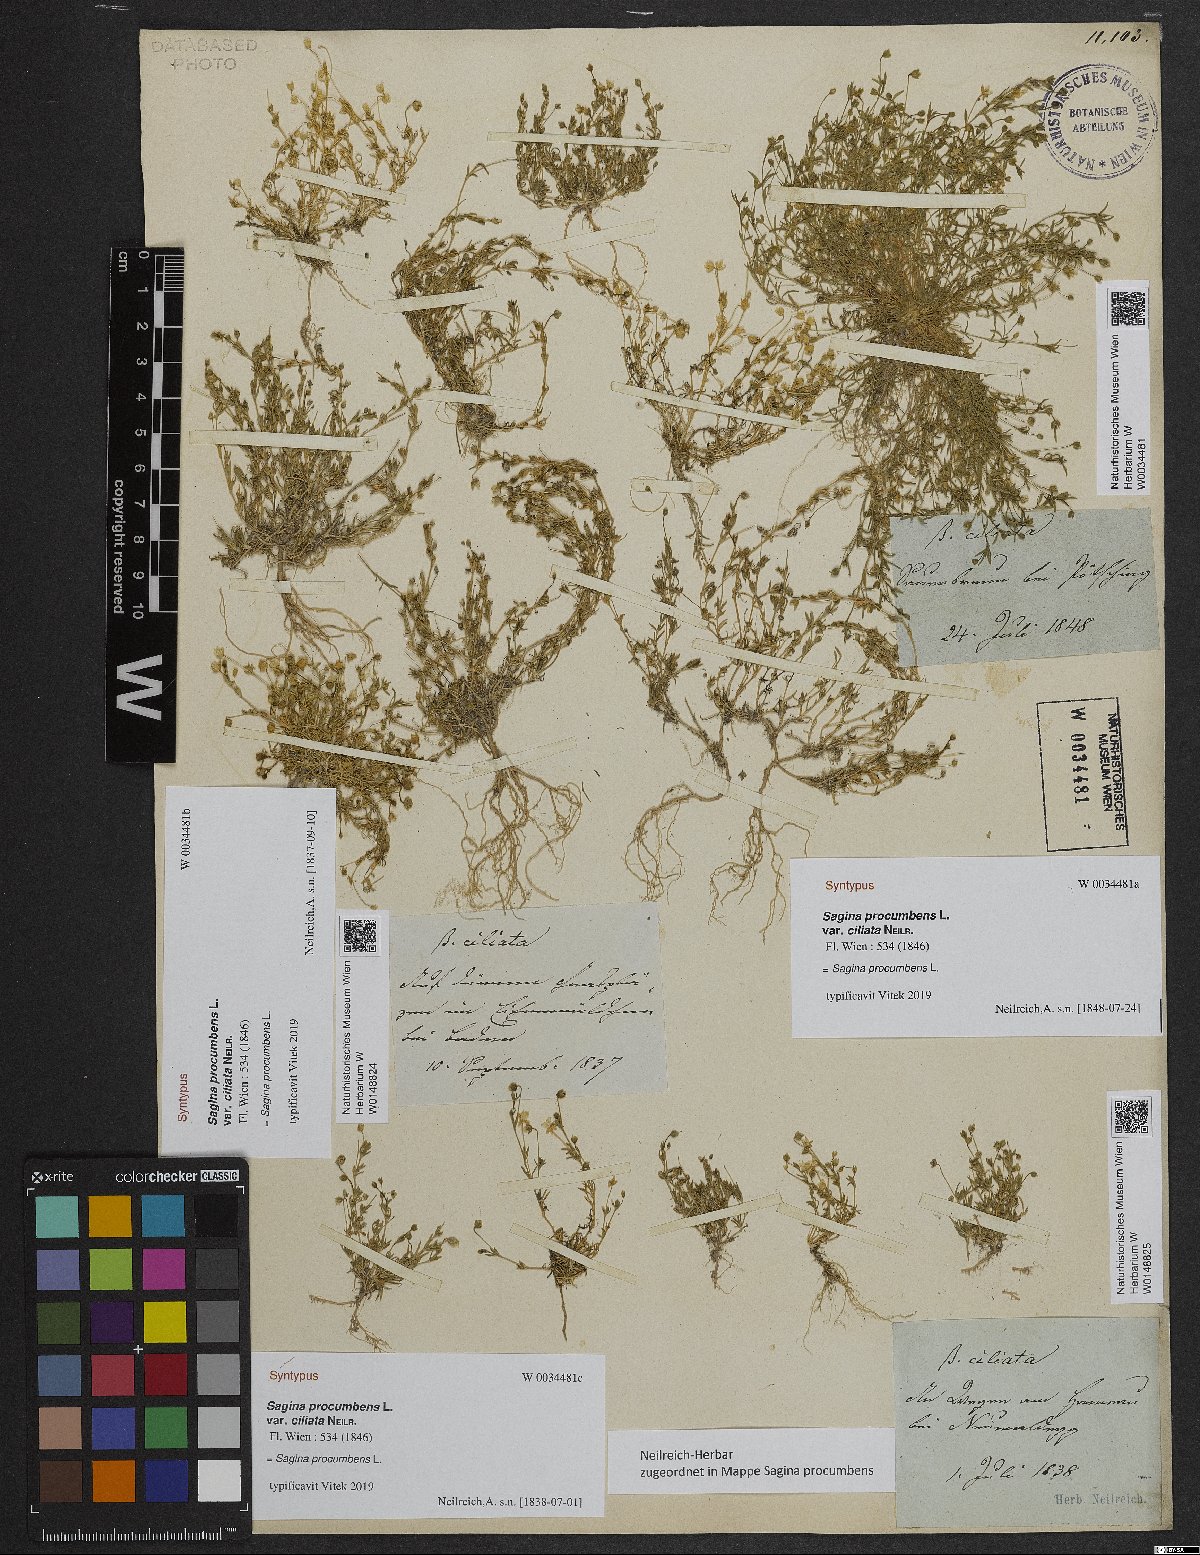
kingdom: Plantae
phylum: Tracheophyta
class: Magnoliopsida
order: Caryophyllales
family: Caryophyllaceae
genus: Sagina
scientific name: Sagina procumbens
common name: Procumbent pearlwort
